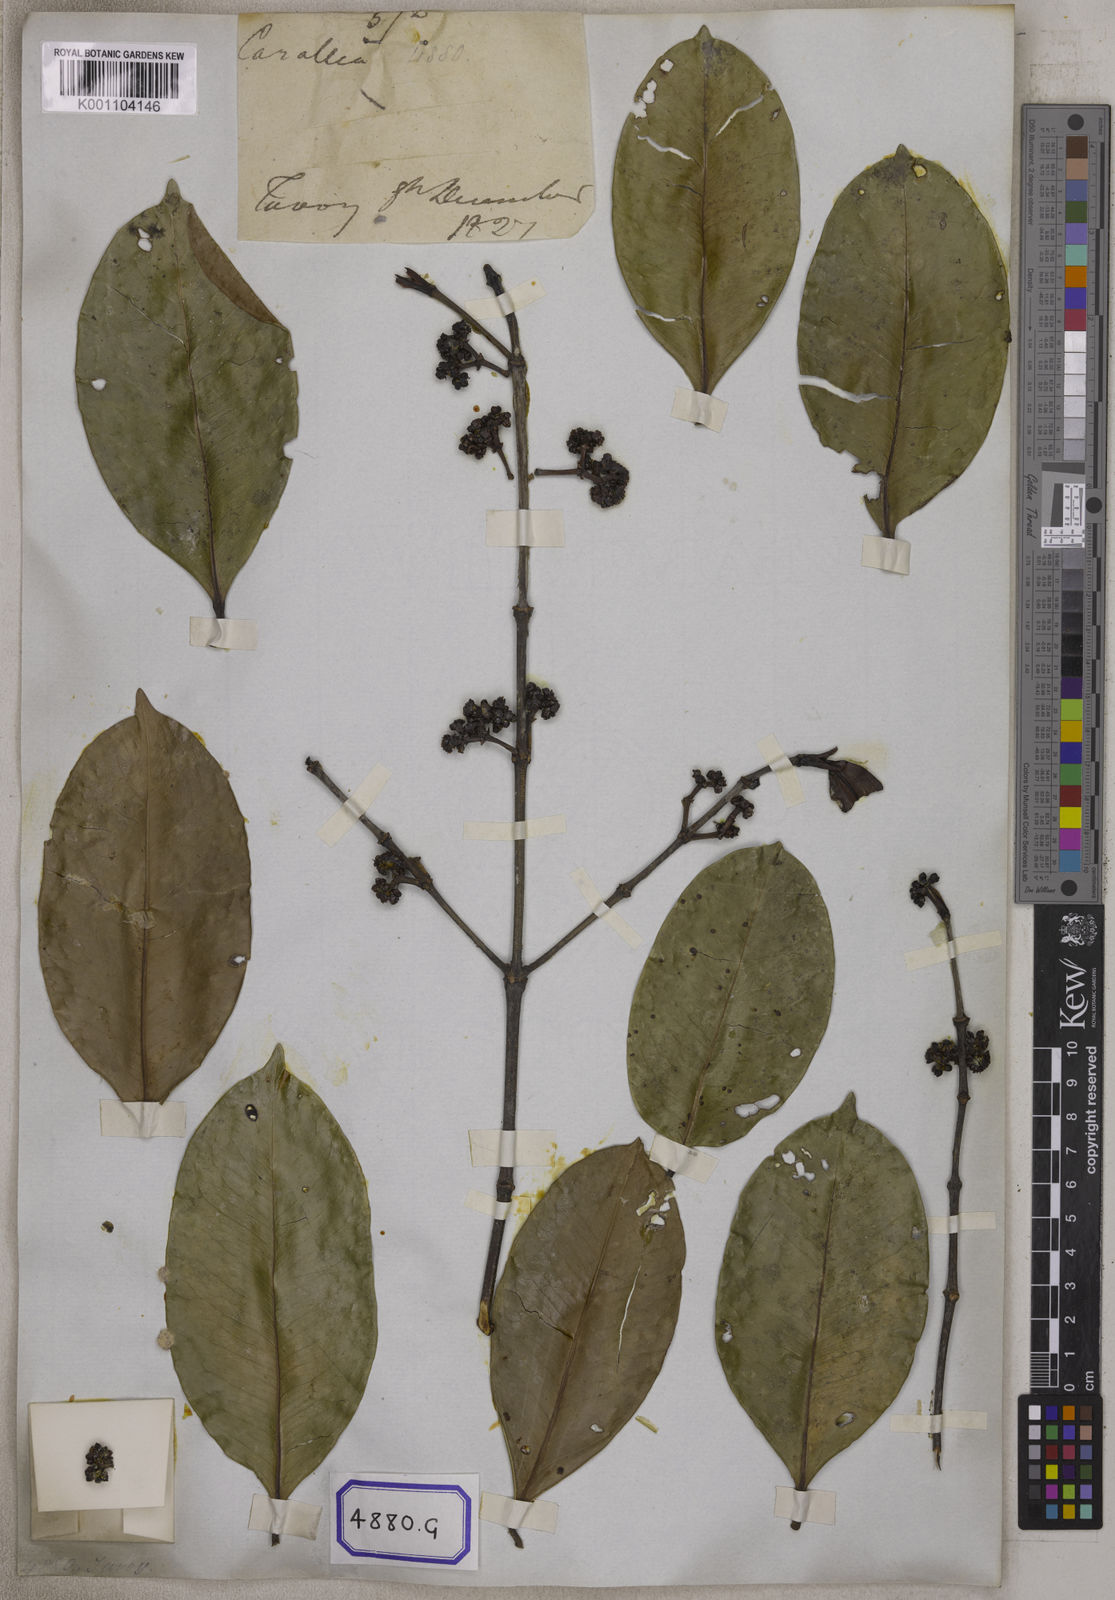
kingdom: Plantae
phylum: Tracheophyta
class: Magnoliopsida
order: Malpighiales
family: Rhizophoraceae
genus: Carallia
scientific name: Carallia brachiata
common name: Carallawood
